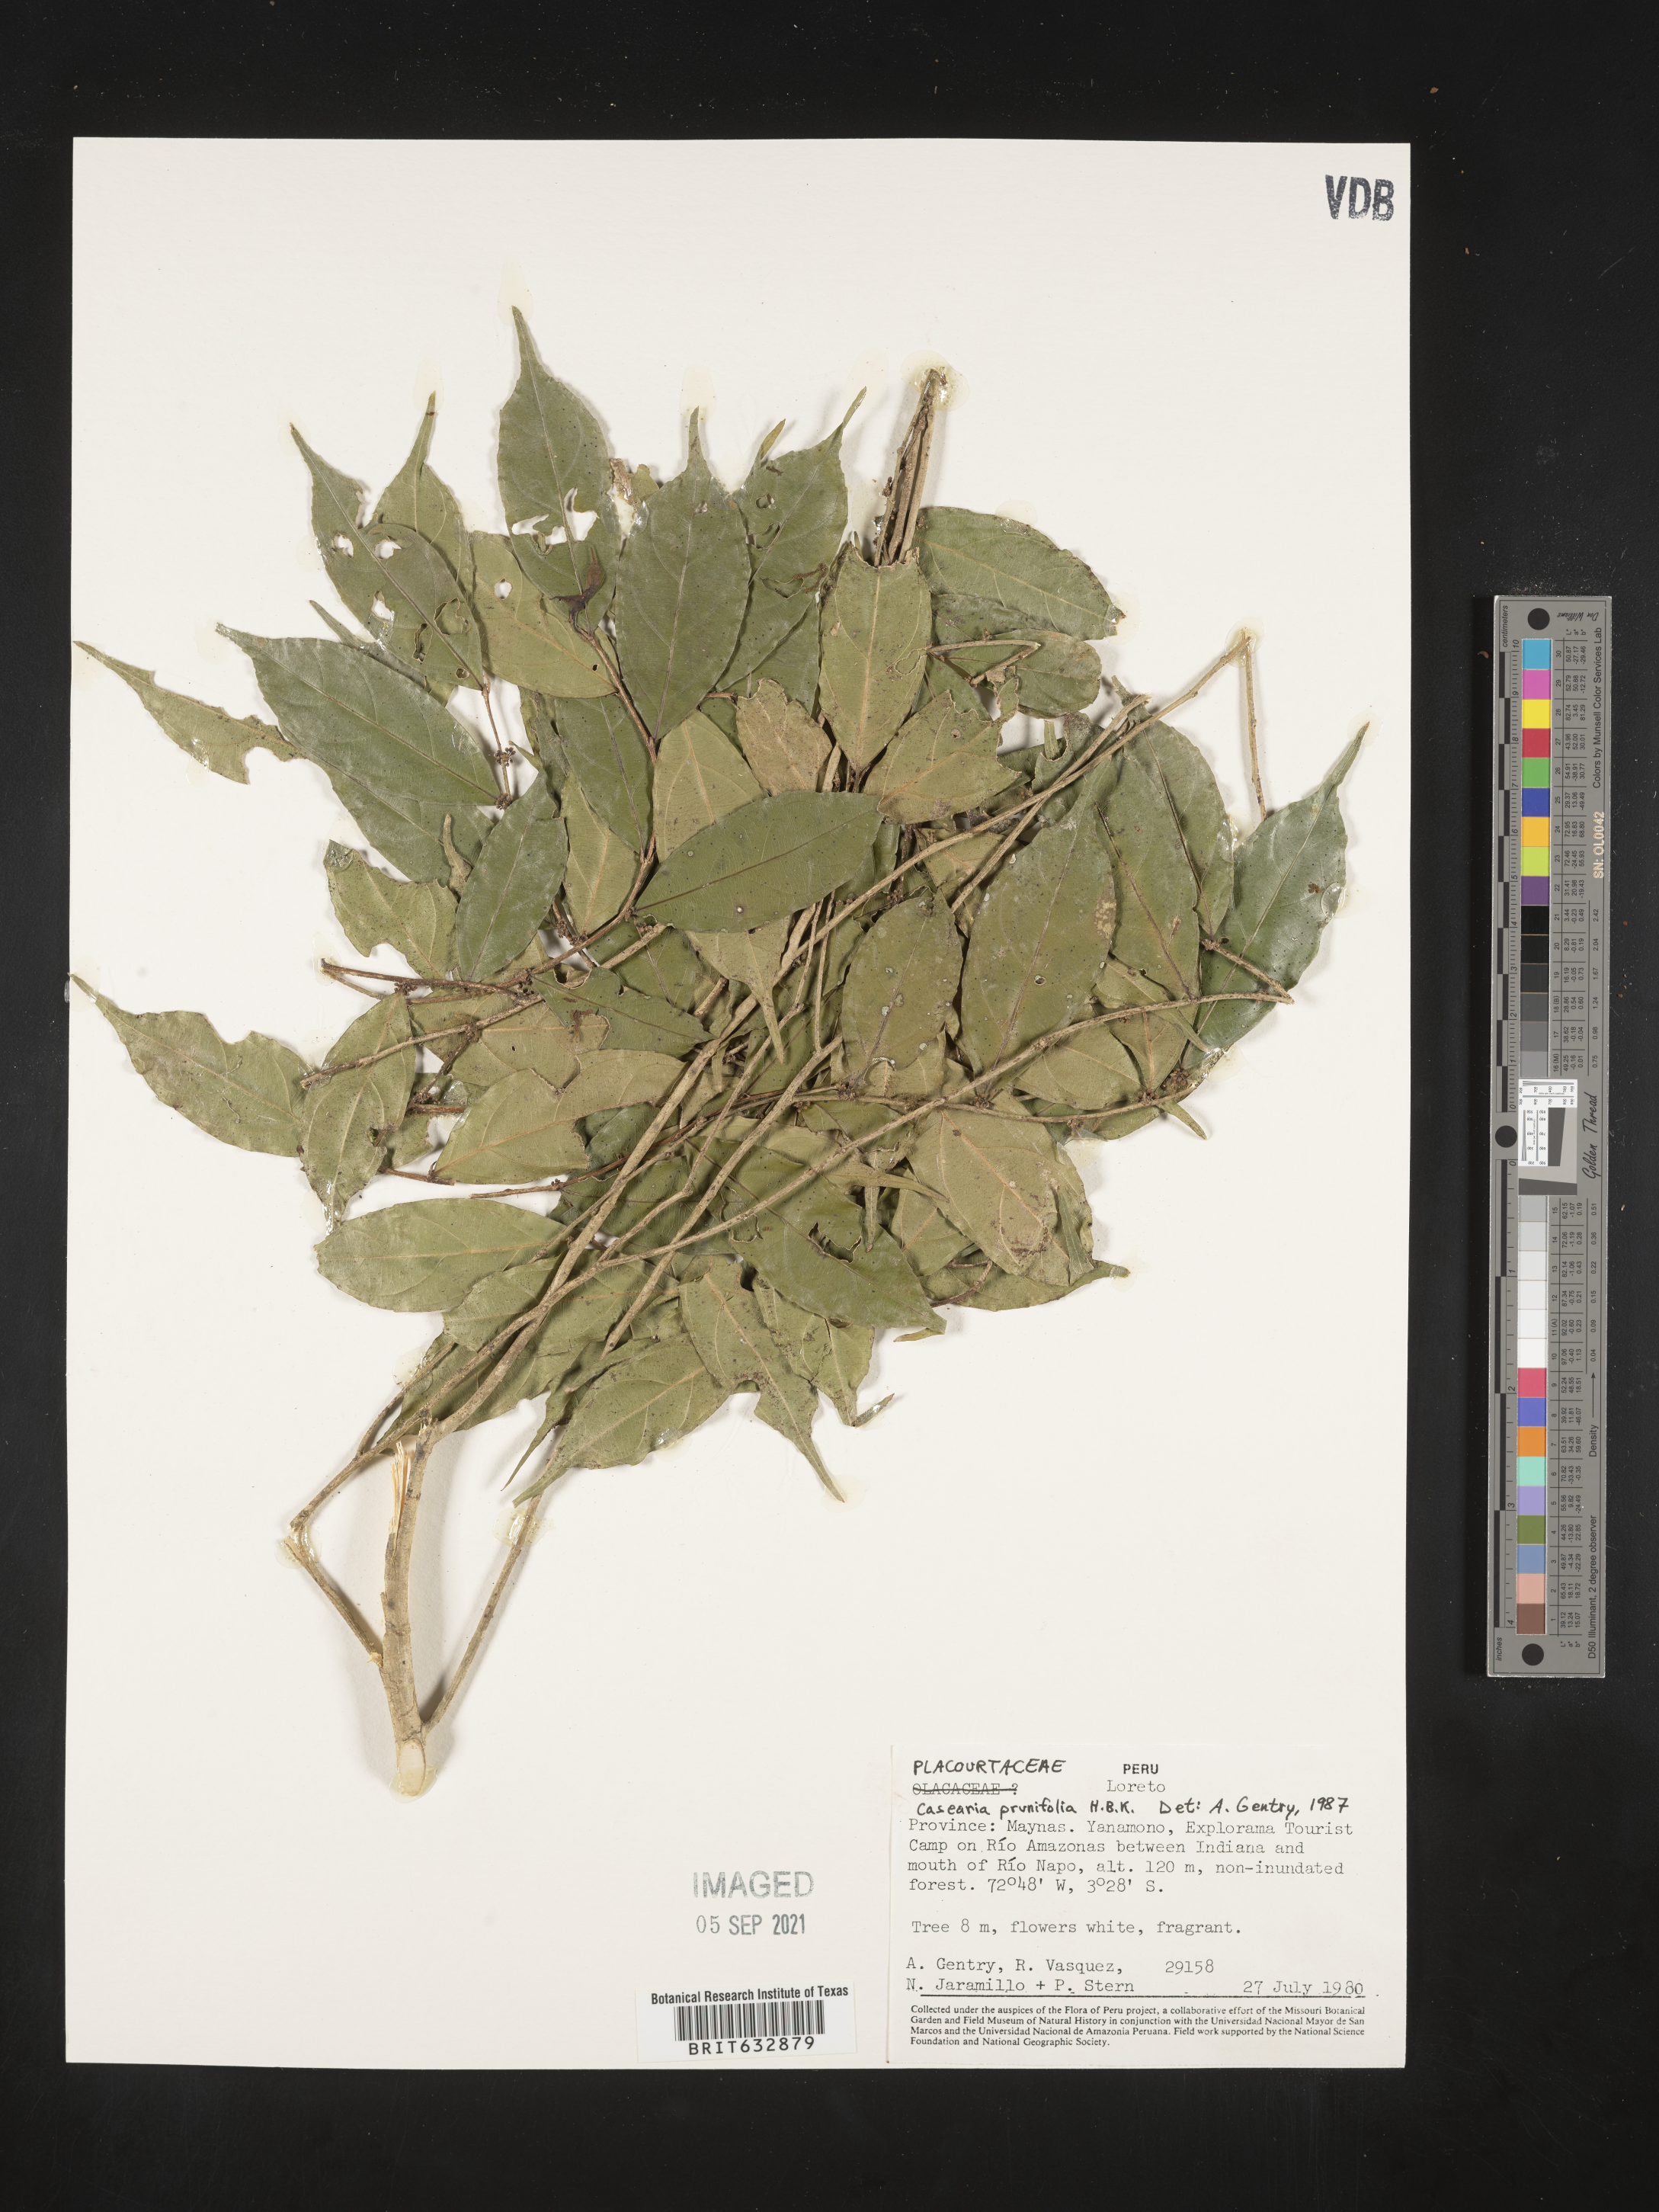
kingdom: Plantae
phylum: Tracheophyta
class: Magnoliopsida
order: Malpighiales
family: Salicaceae
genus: Casearia
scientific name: Casearia
